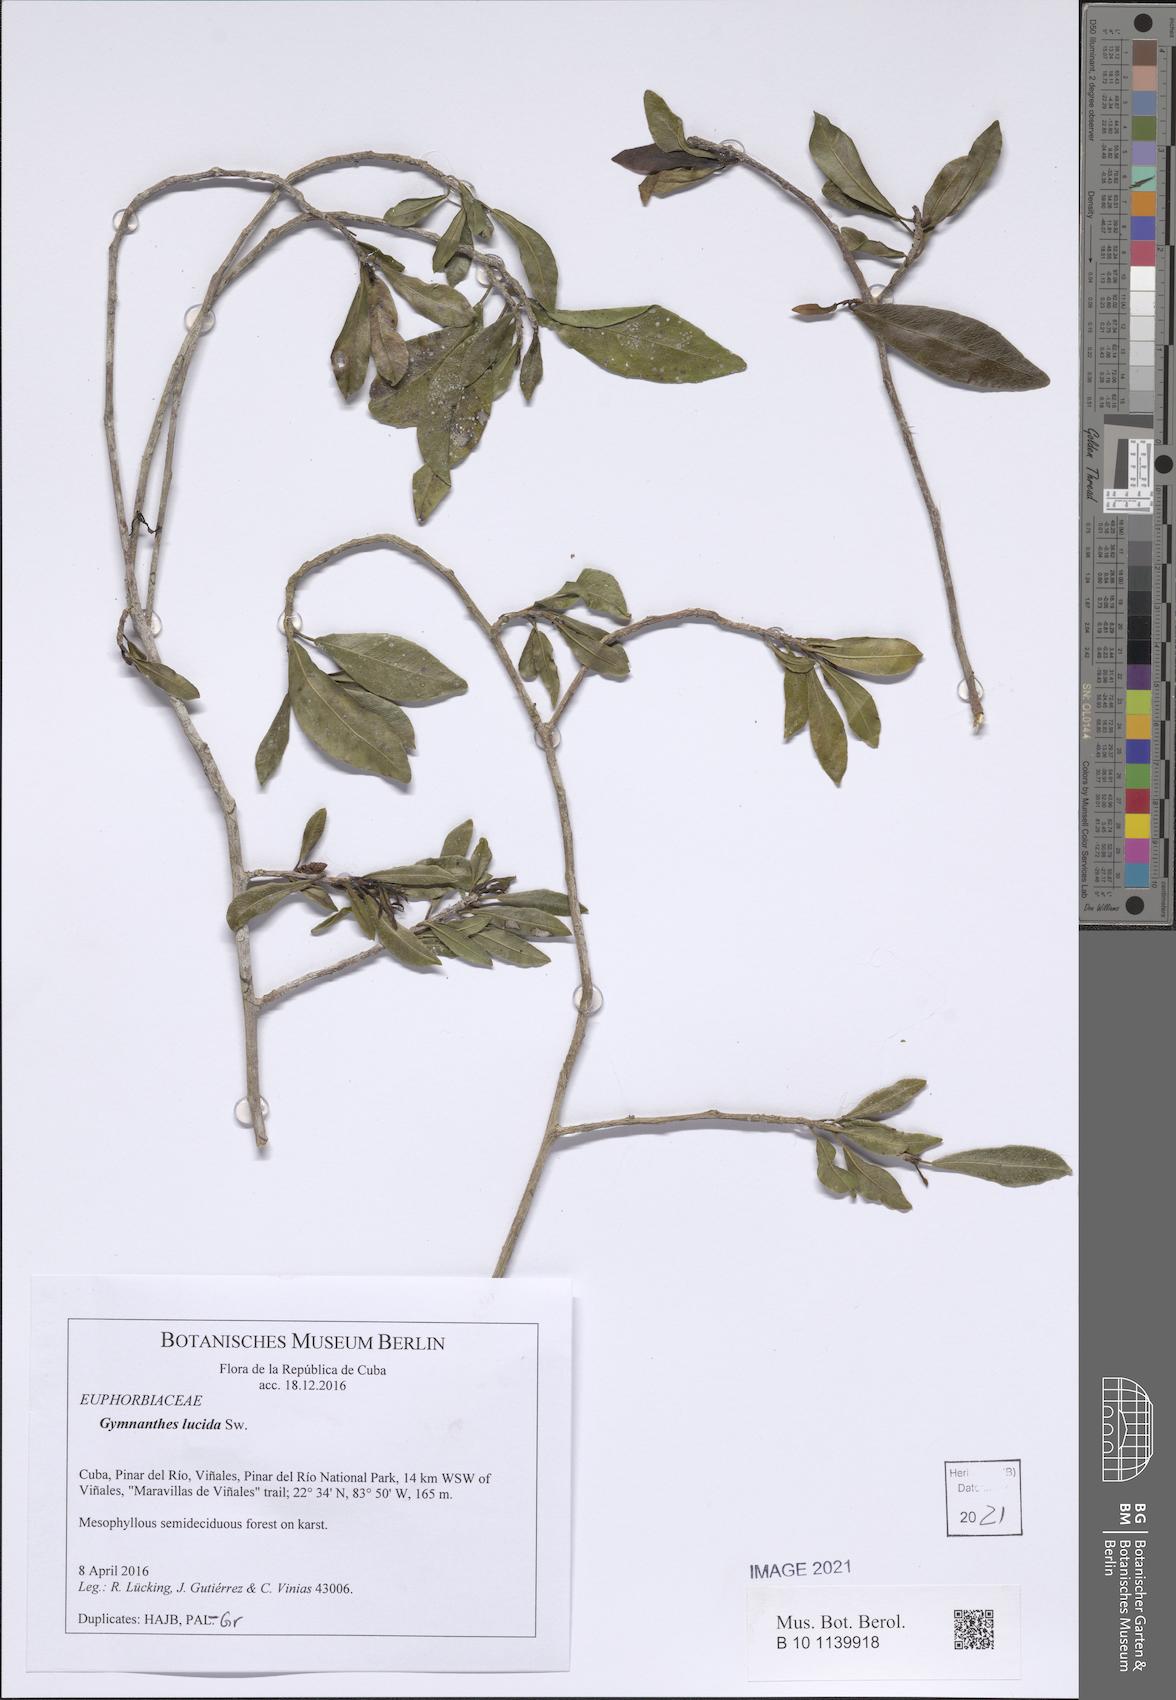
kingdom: Plantae
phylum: Tracheophyta
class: Magnoliopsida
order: Malpighiales
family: Euphorbiaceae
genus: Gymnanthes
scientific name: Gymnanthes lucida
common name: Oysterwood
